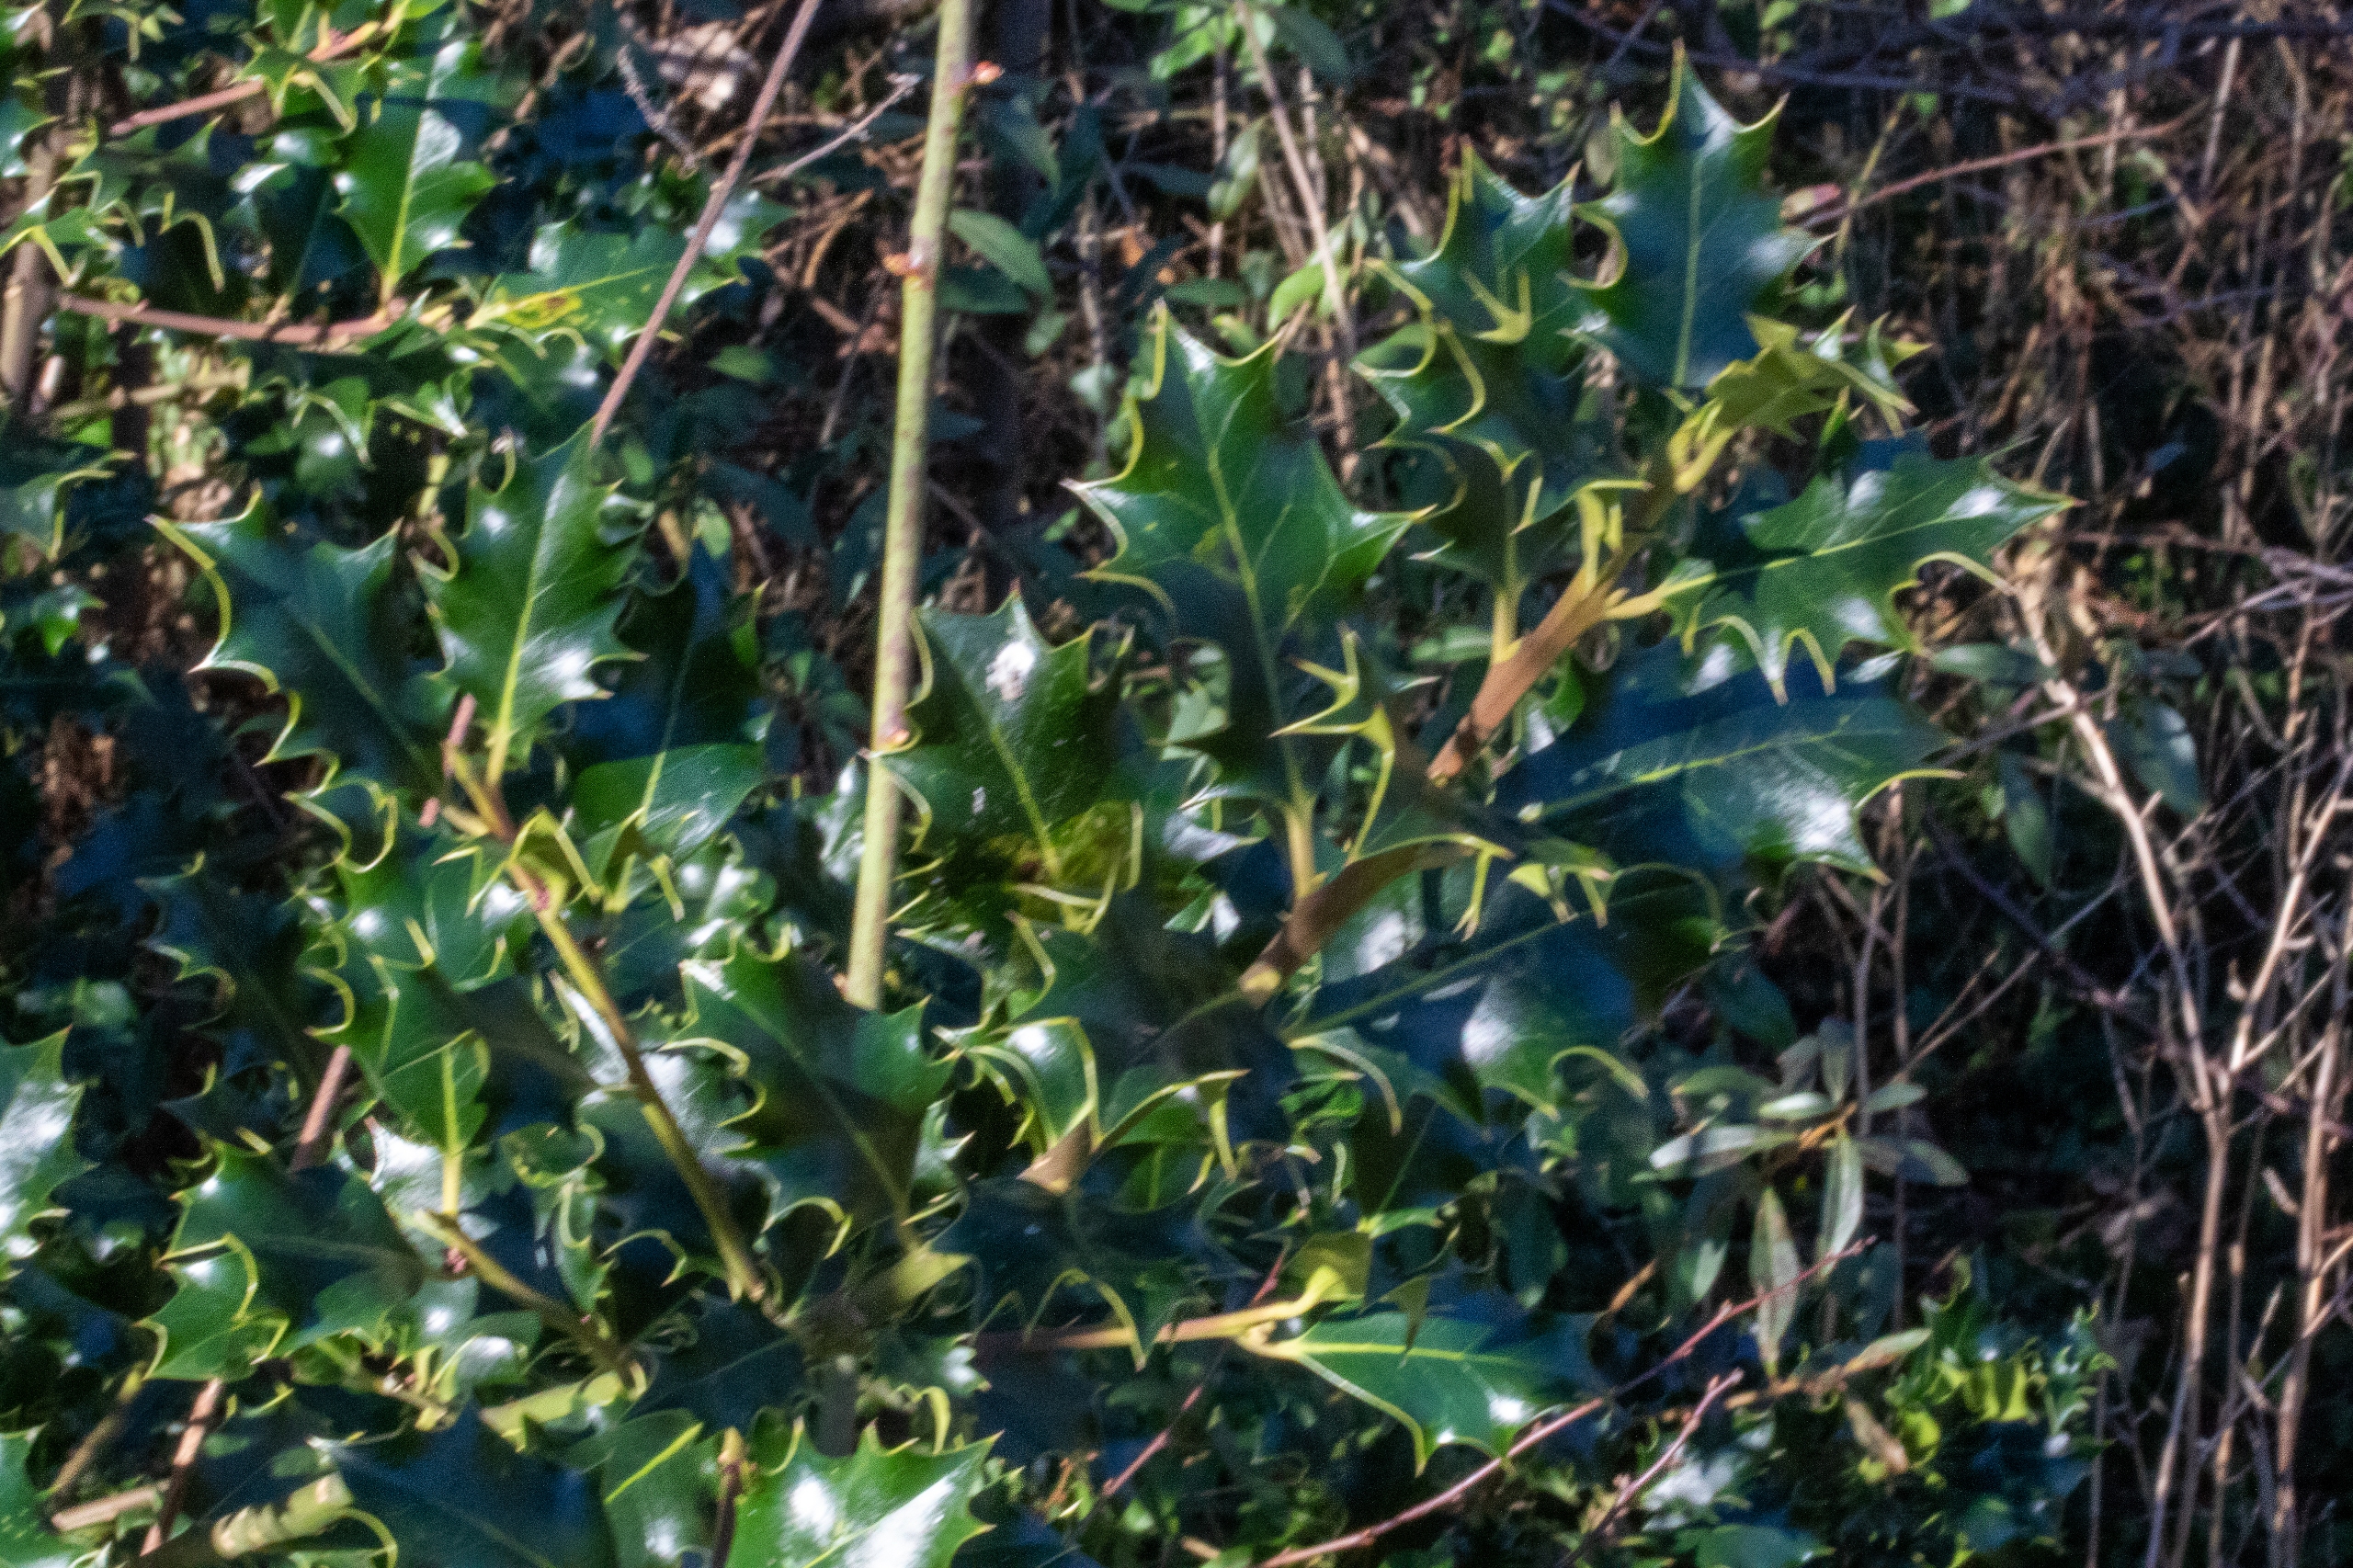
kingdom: Plantae
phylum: Tracheophyta
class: Magnoliopsida
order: Aquifoliales
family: Aquifoliaceae
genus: Ilex
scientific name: Ilex aquifolium
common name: Kristtorn
